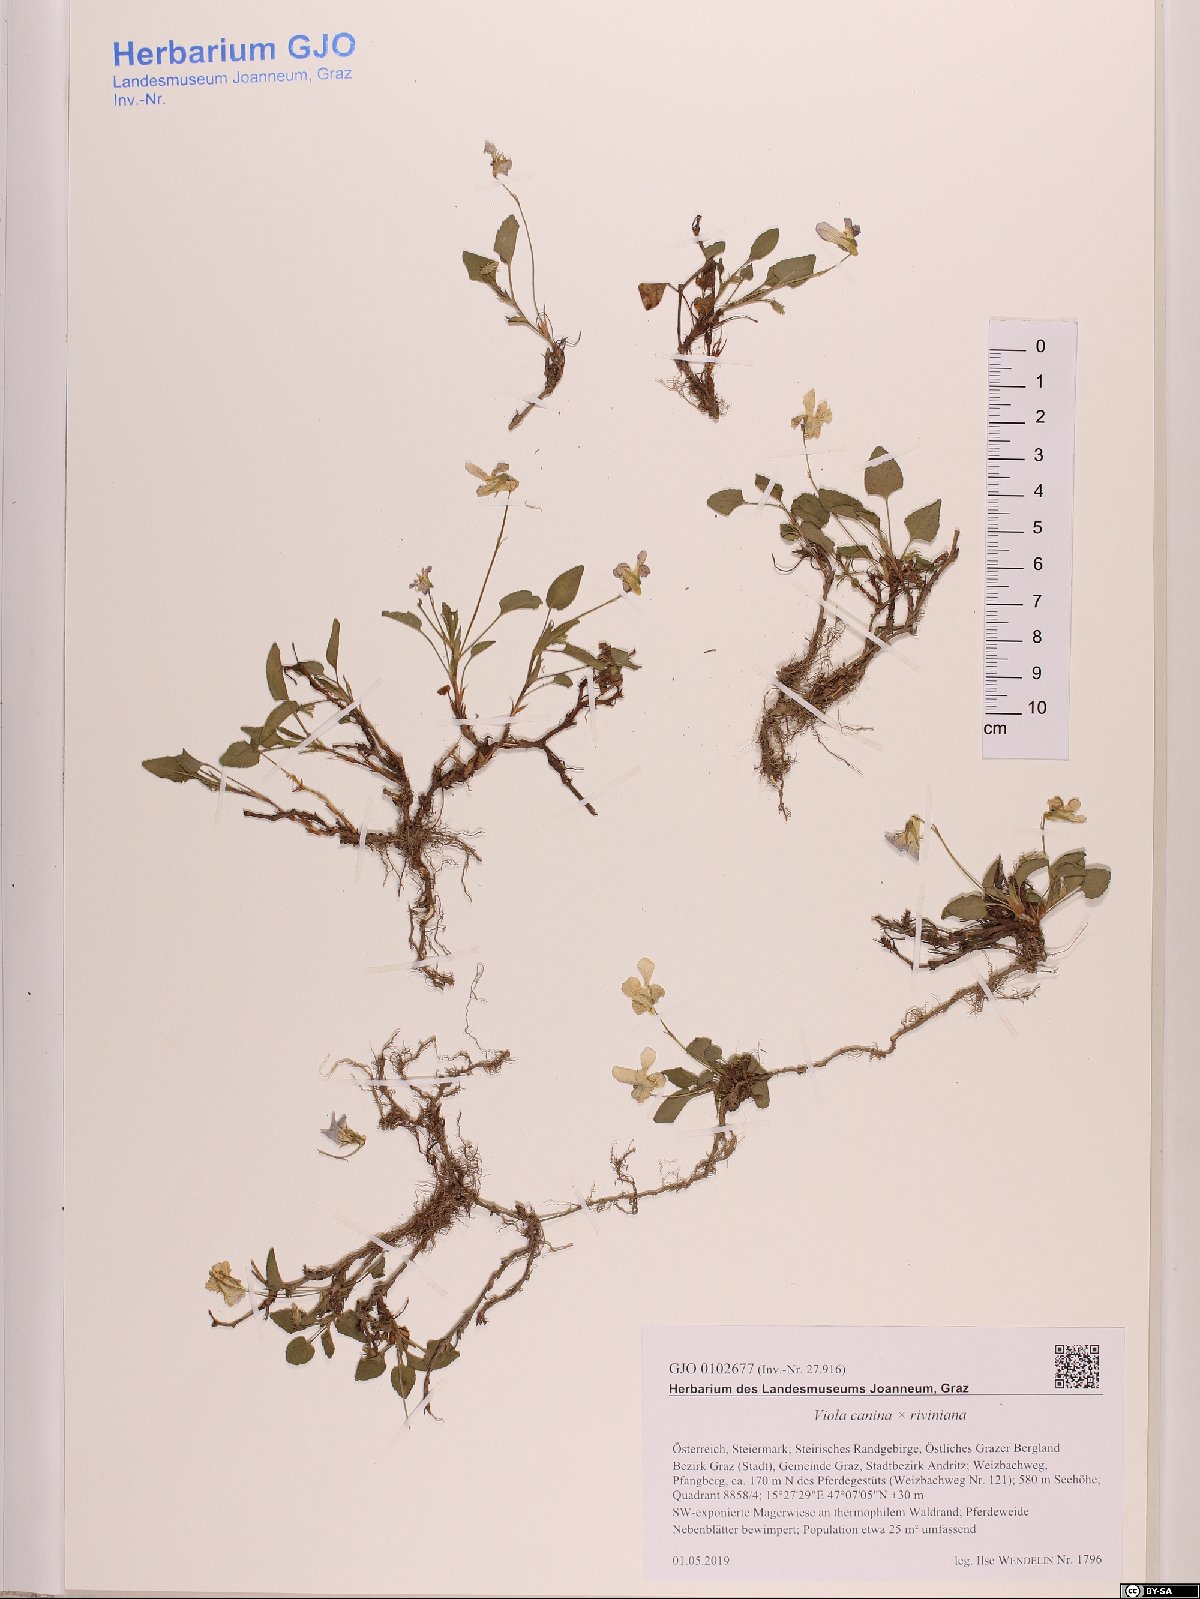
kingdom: Plantae
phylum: Tracheophyta
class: Magnoliopsida
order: Malpighiales
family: Violaceae
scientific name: Violaceae
